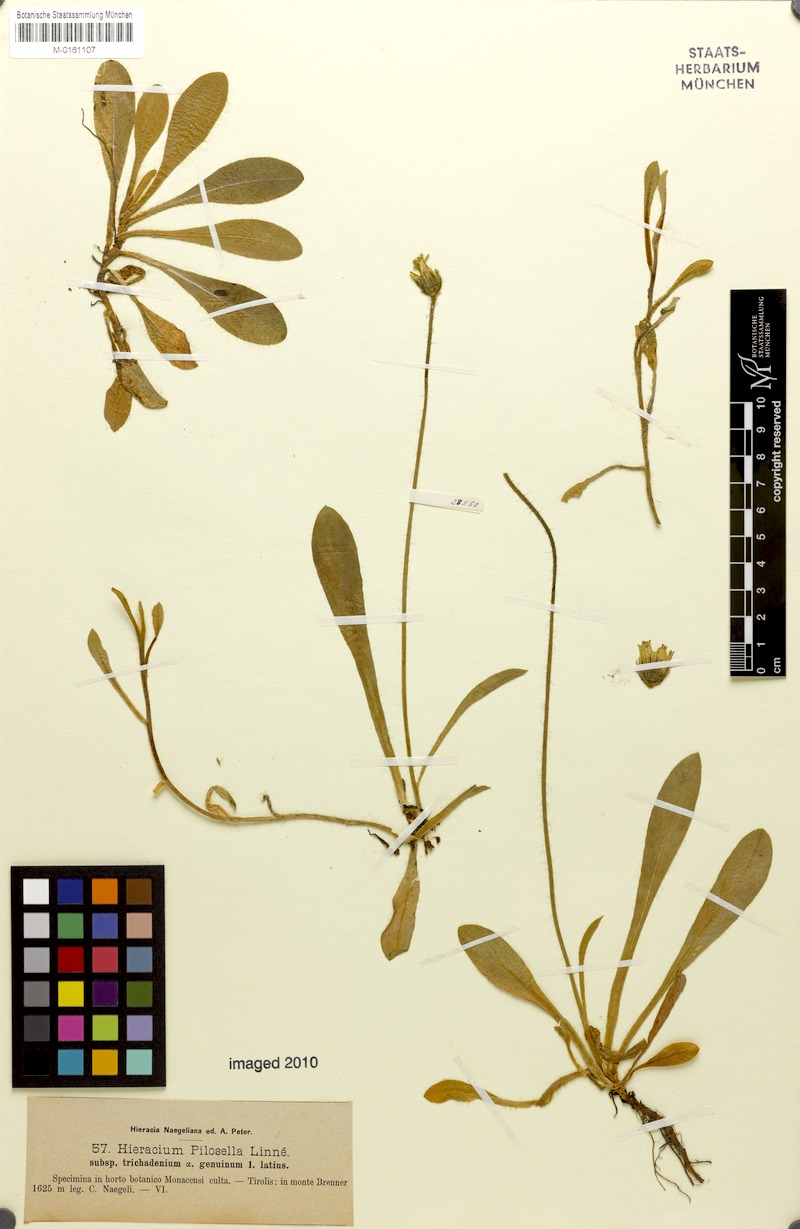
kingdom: Plantae
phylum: Tracheophyta
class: Magnoliopsida
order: Asterales
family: Asteraceae
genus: Pilosella
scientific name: Pilosella officinarum
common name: Mouse-ear hawkweed
